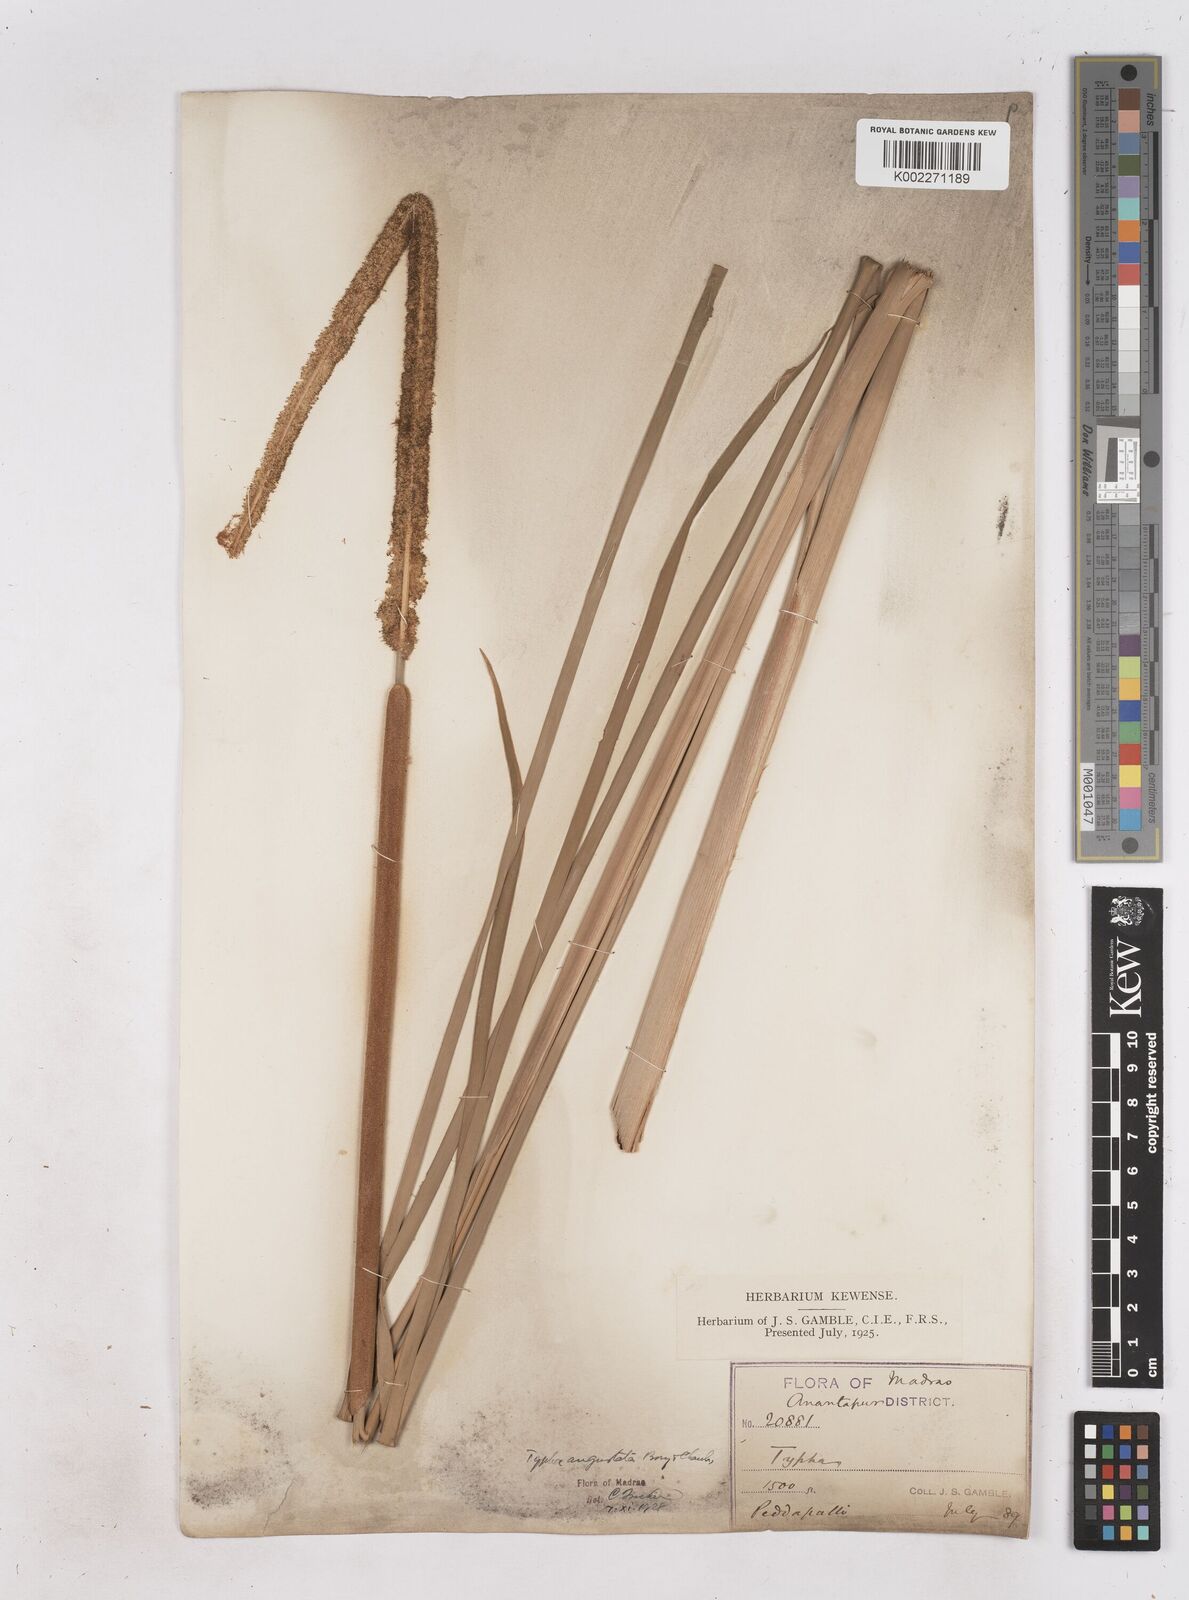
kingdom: Plantae
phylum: Tracheophyta
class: Liliopsida
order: Poales
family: Typhaceae
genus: Typha
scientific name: Typha domingensis
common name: Southern cattail
